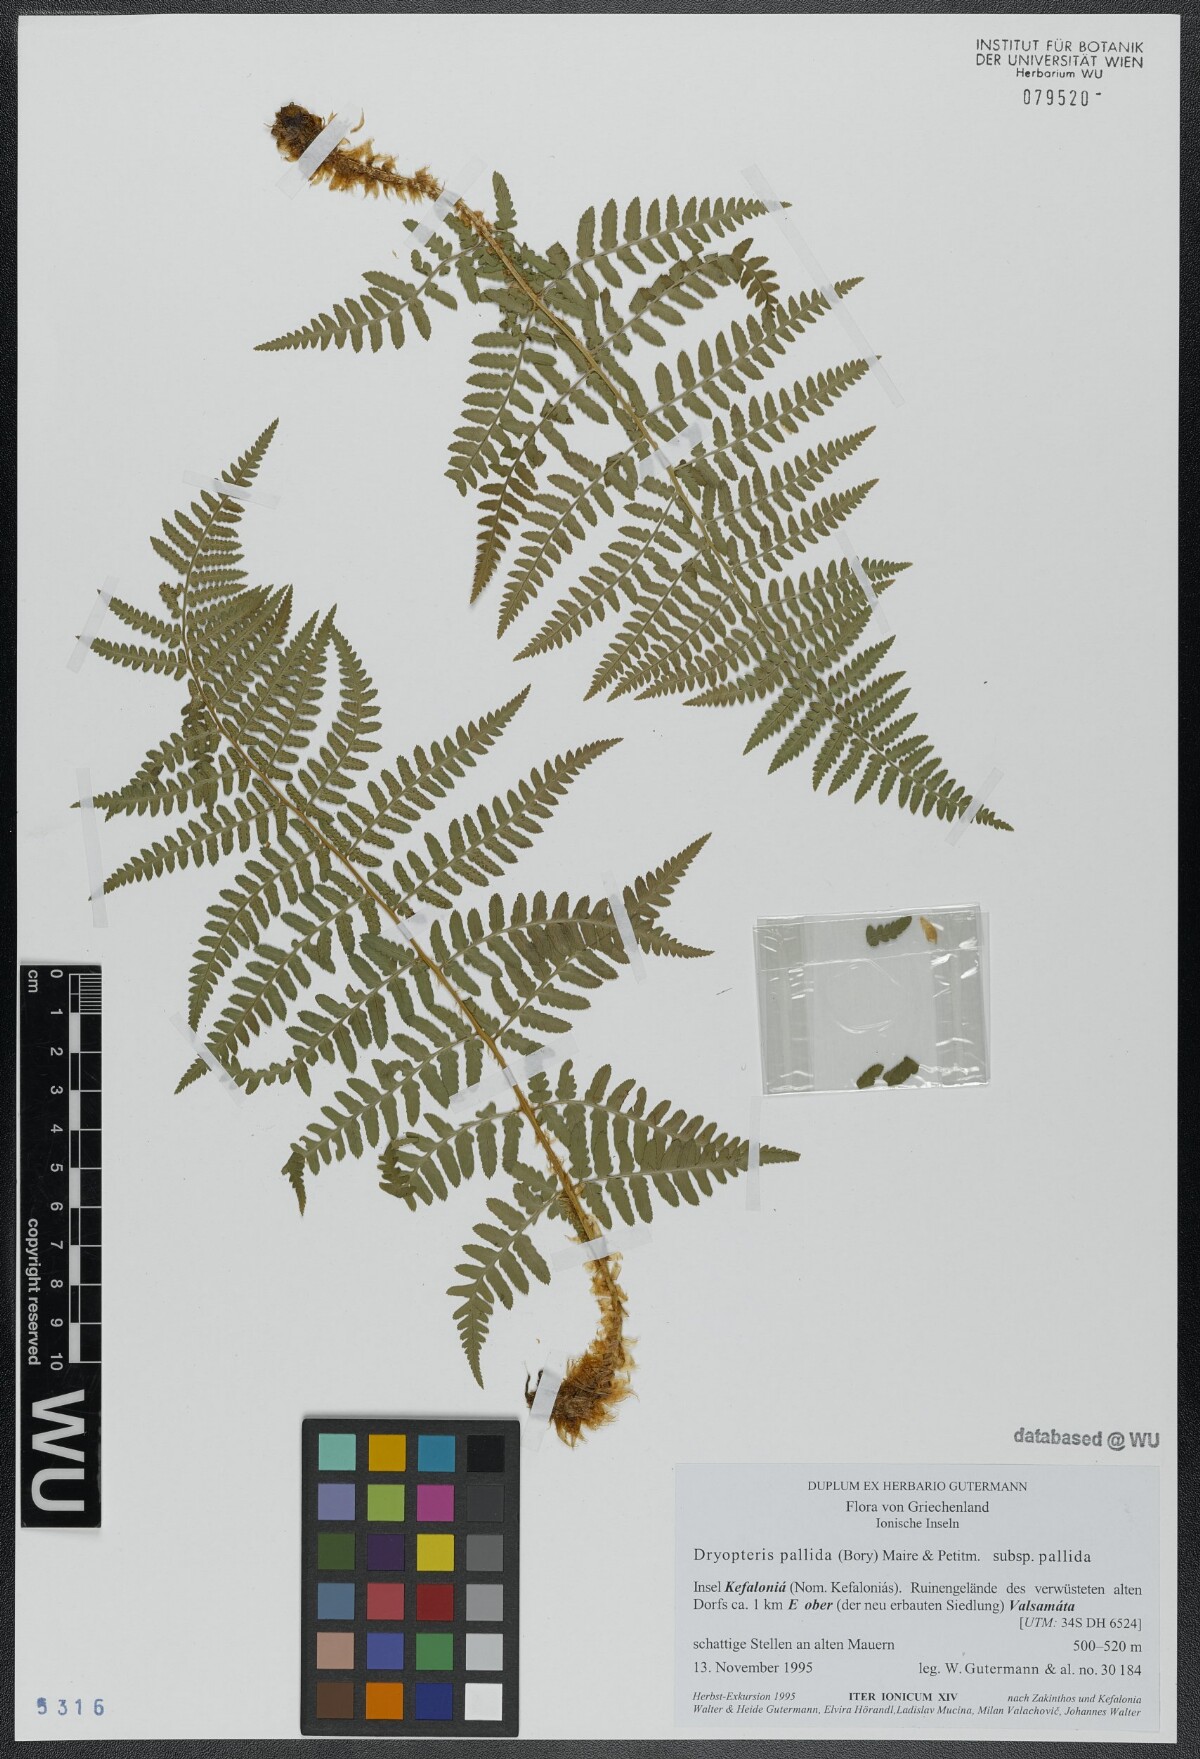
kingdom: Plantae
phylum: Tracheophyta
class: Polypodiopsida
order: Polypodiales
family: Dryopteridaceae
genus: Dryopteris
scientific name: Dryopteris pallida
